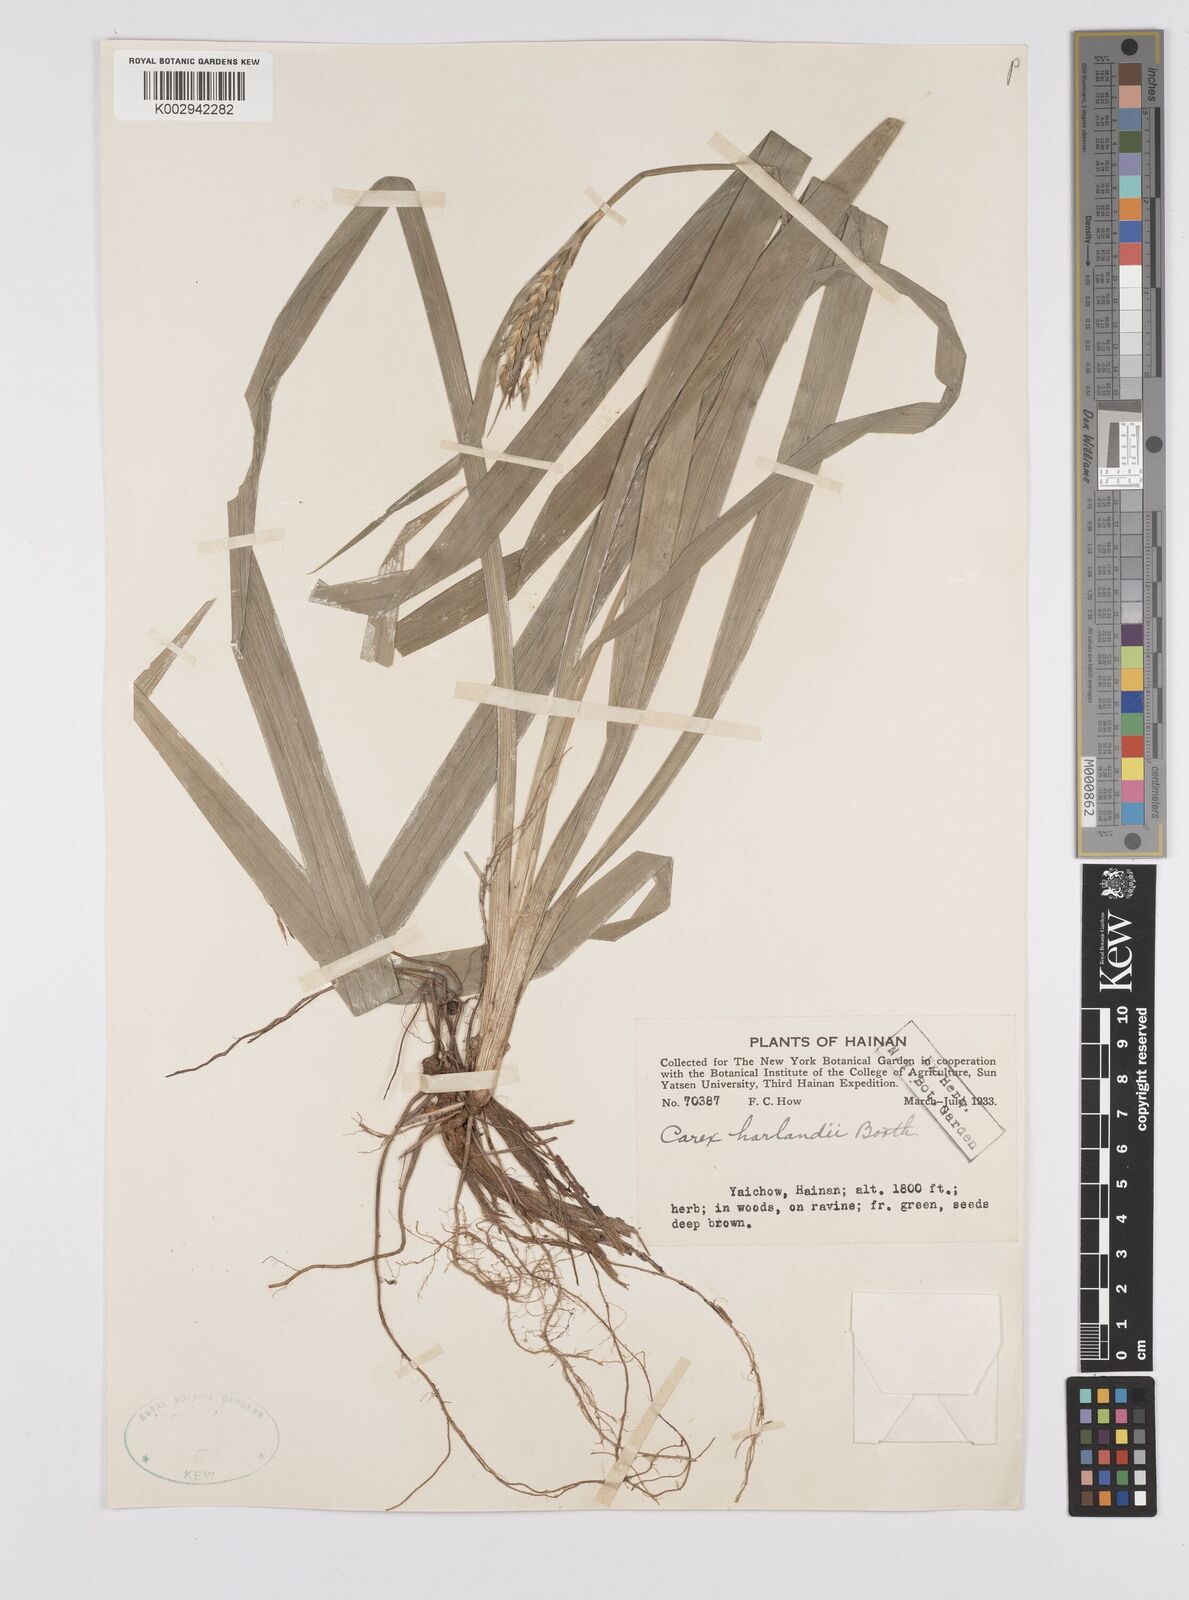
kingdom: Plantae
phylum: Tracheophyta
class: Liliopsida
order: Poales
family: Cyperaceae
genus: Carex
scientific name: Carex
